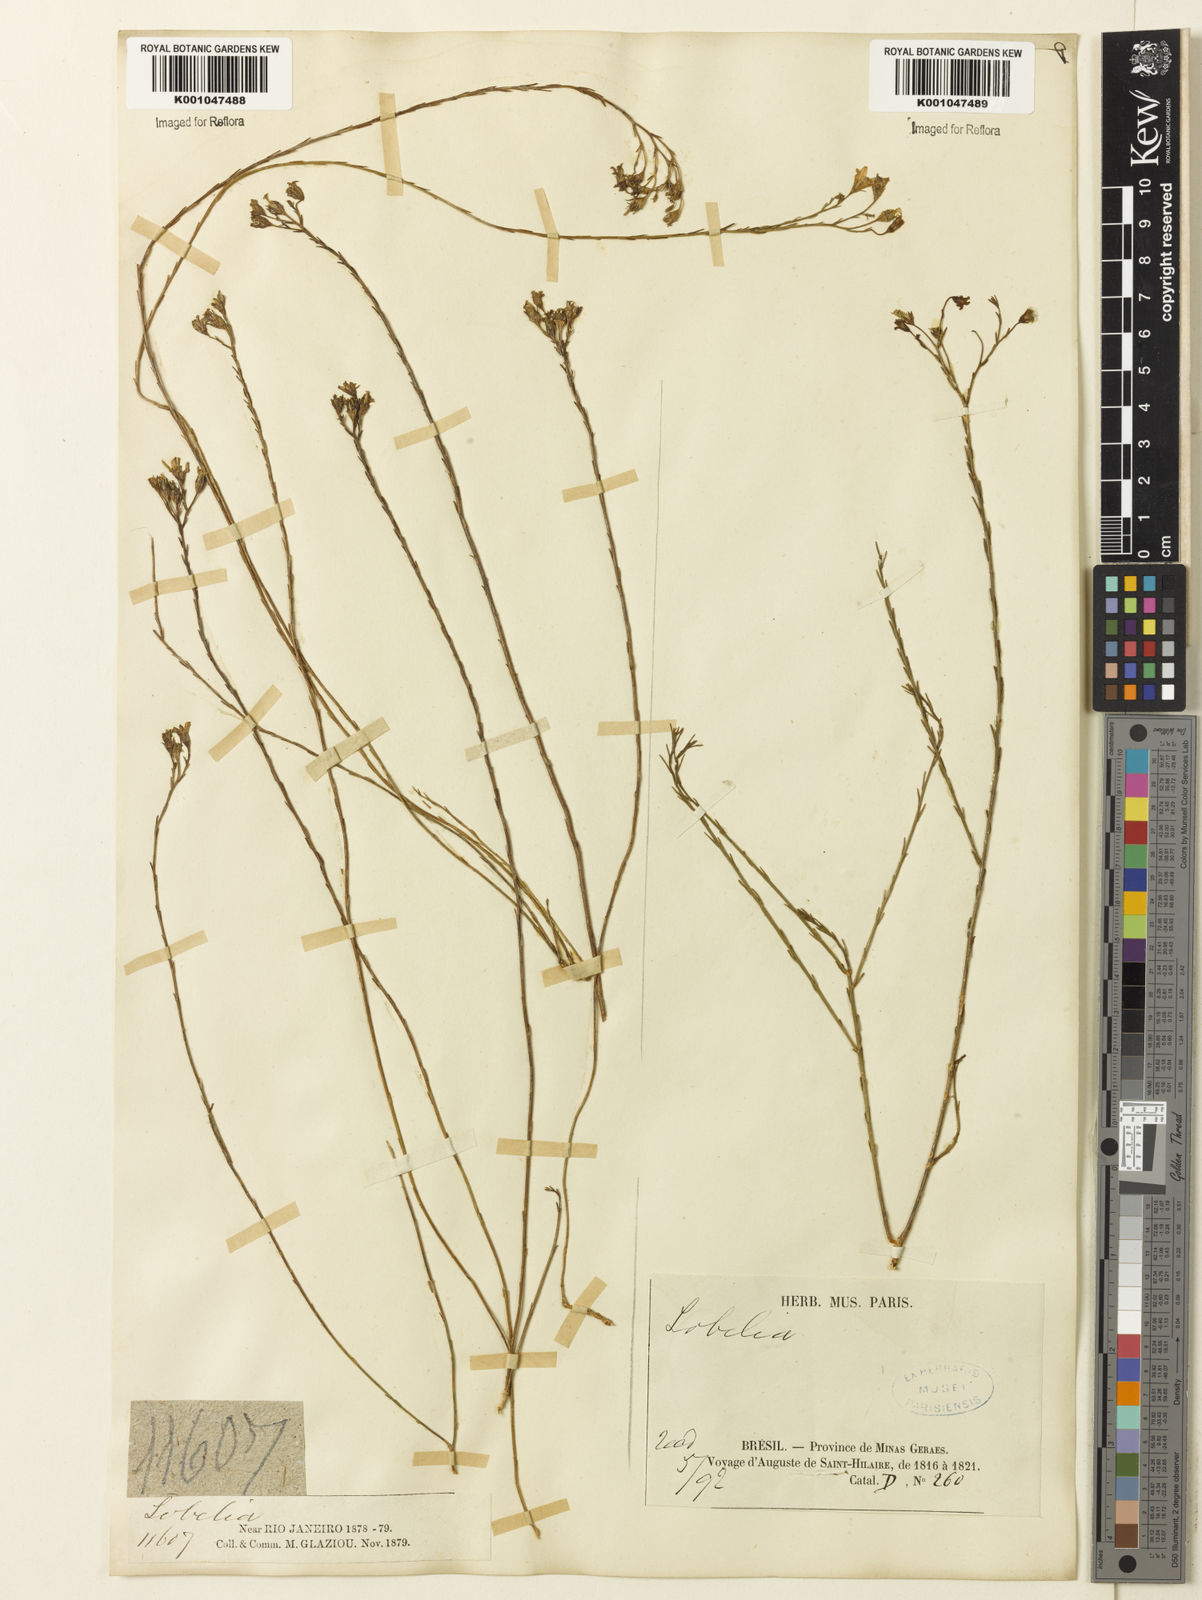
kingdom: Plantae
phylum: Tracheophyta
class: Magnoliopsida
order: Asterales
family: Campanulaceae
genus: Wahlenbergia
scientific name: Wahlenbergia brasiliensis
